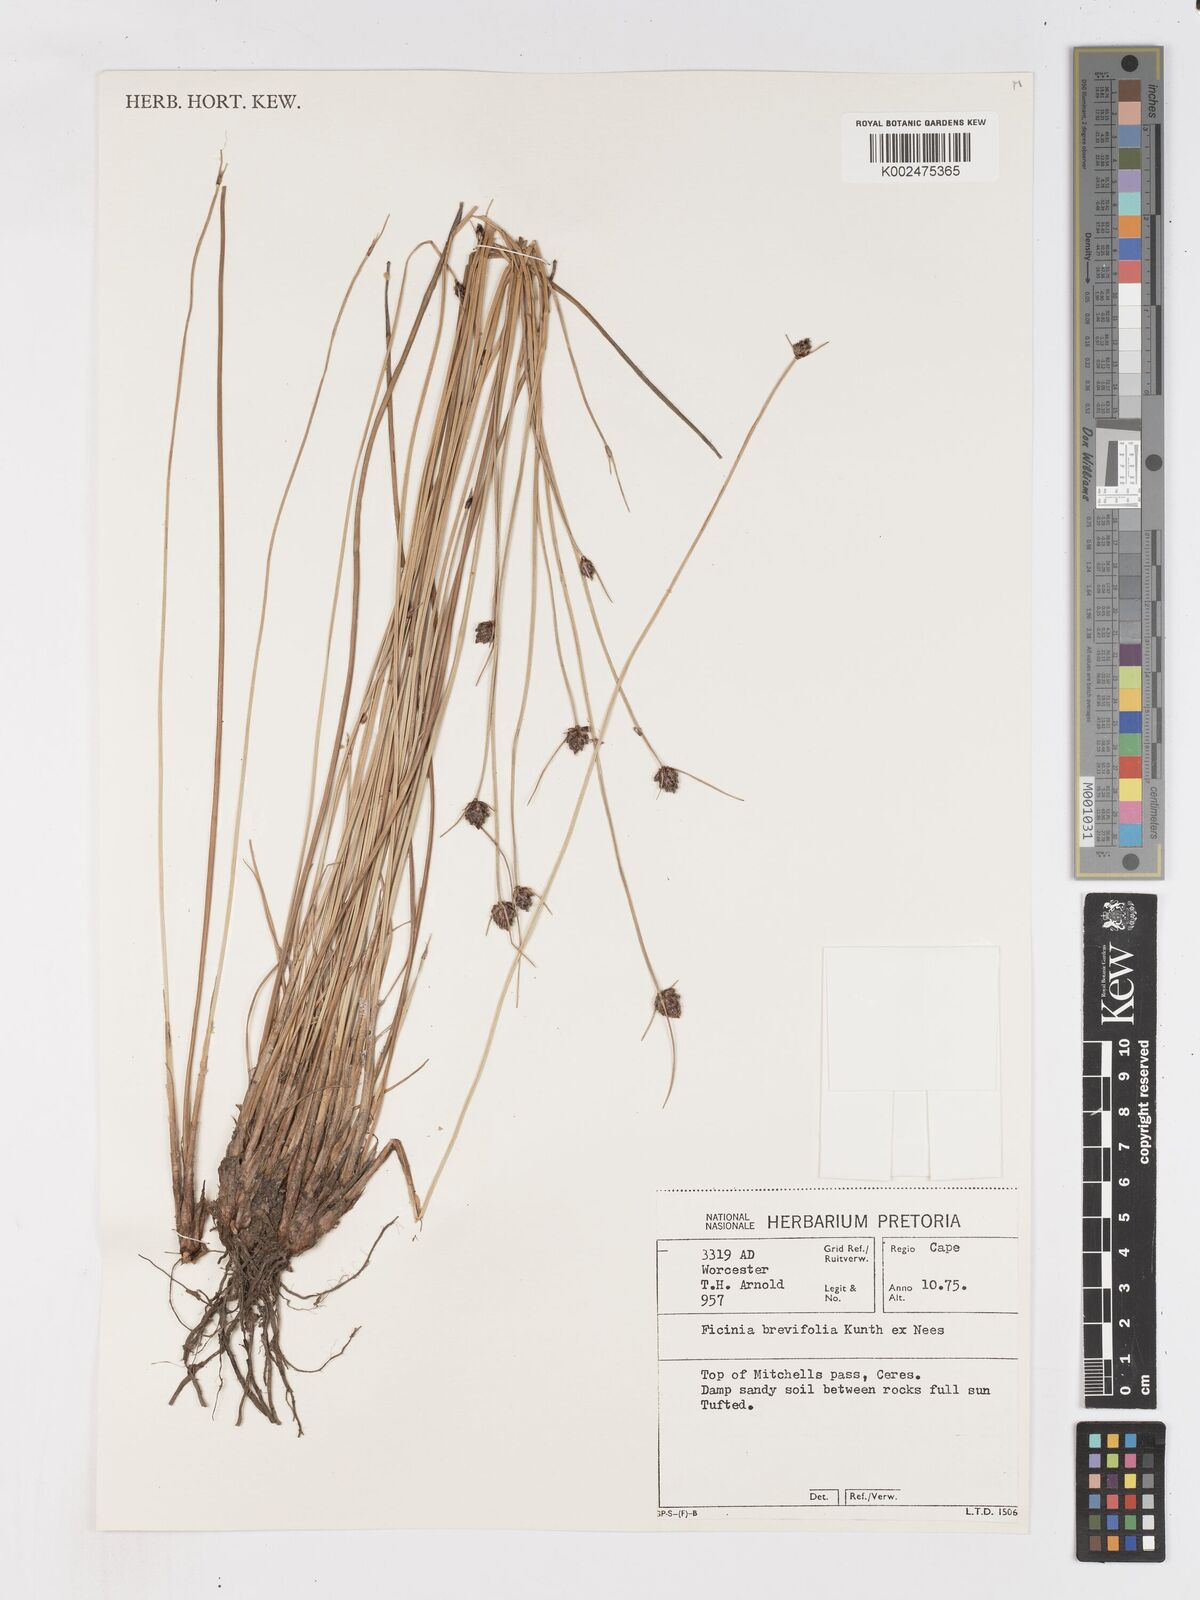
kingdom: Plantae
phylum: Tracheophyta
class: Liliopsida
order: Poales
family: Cyperaceae
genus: Ficinia
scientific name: Ficinia brevifolia
